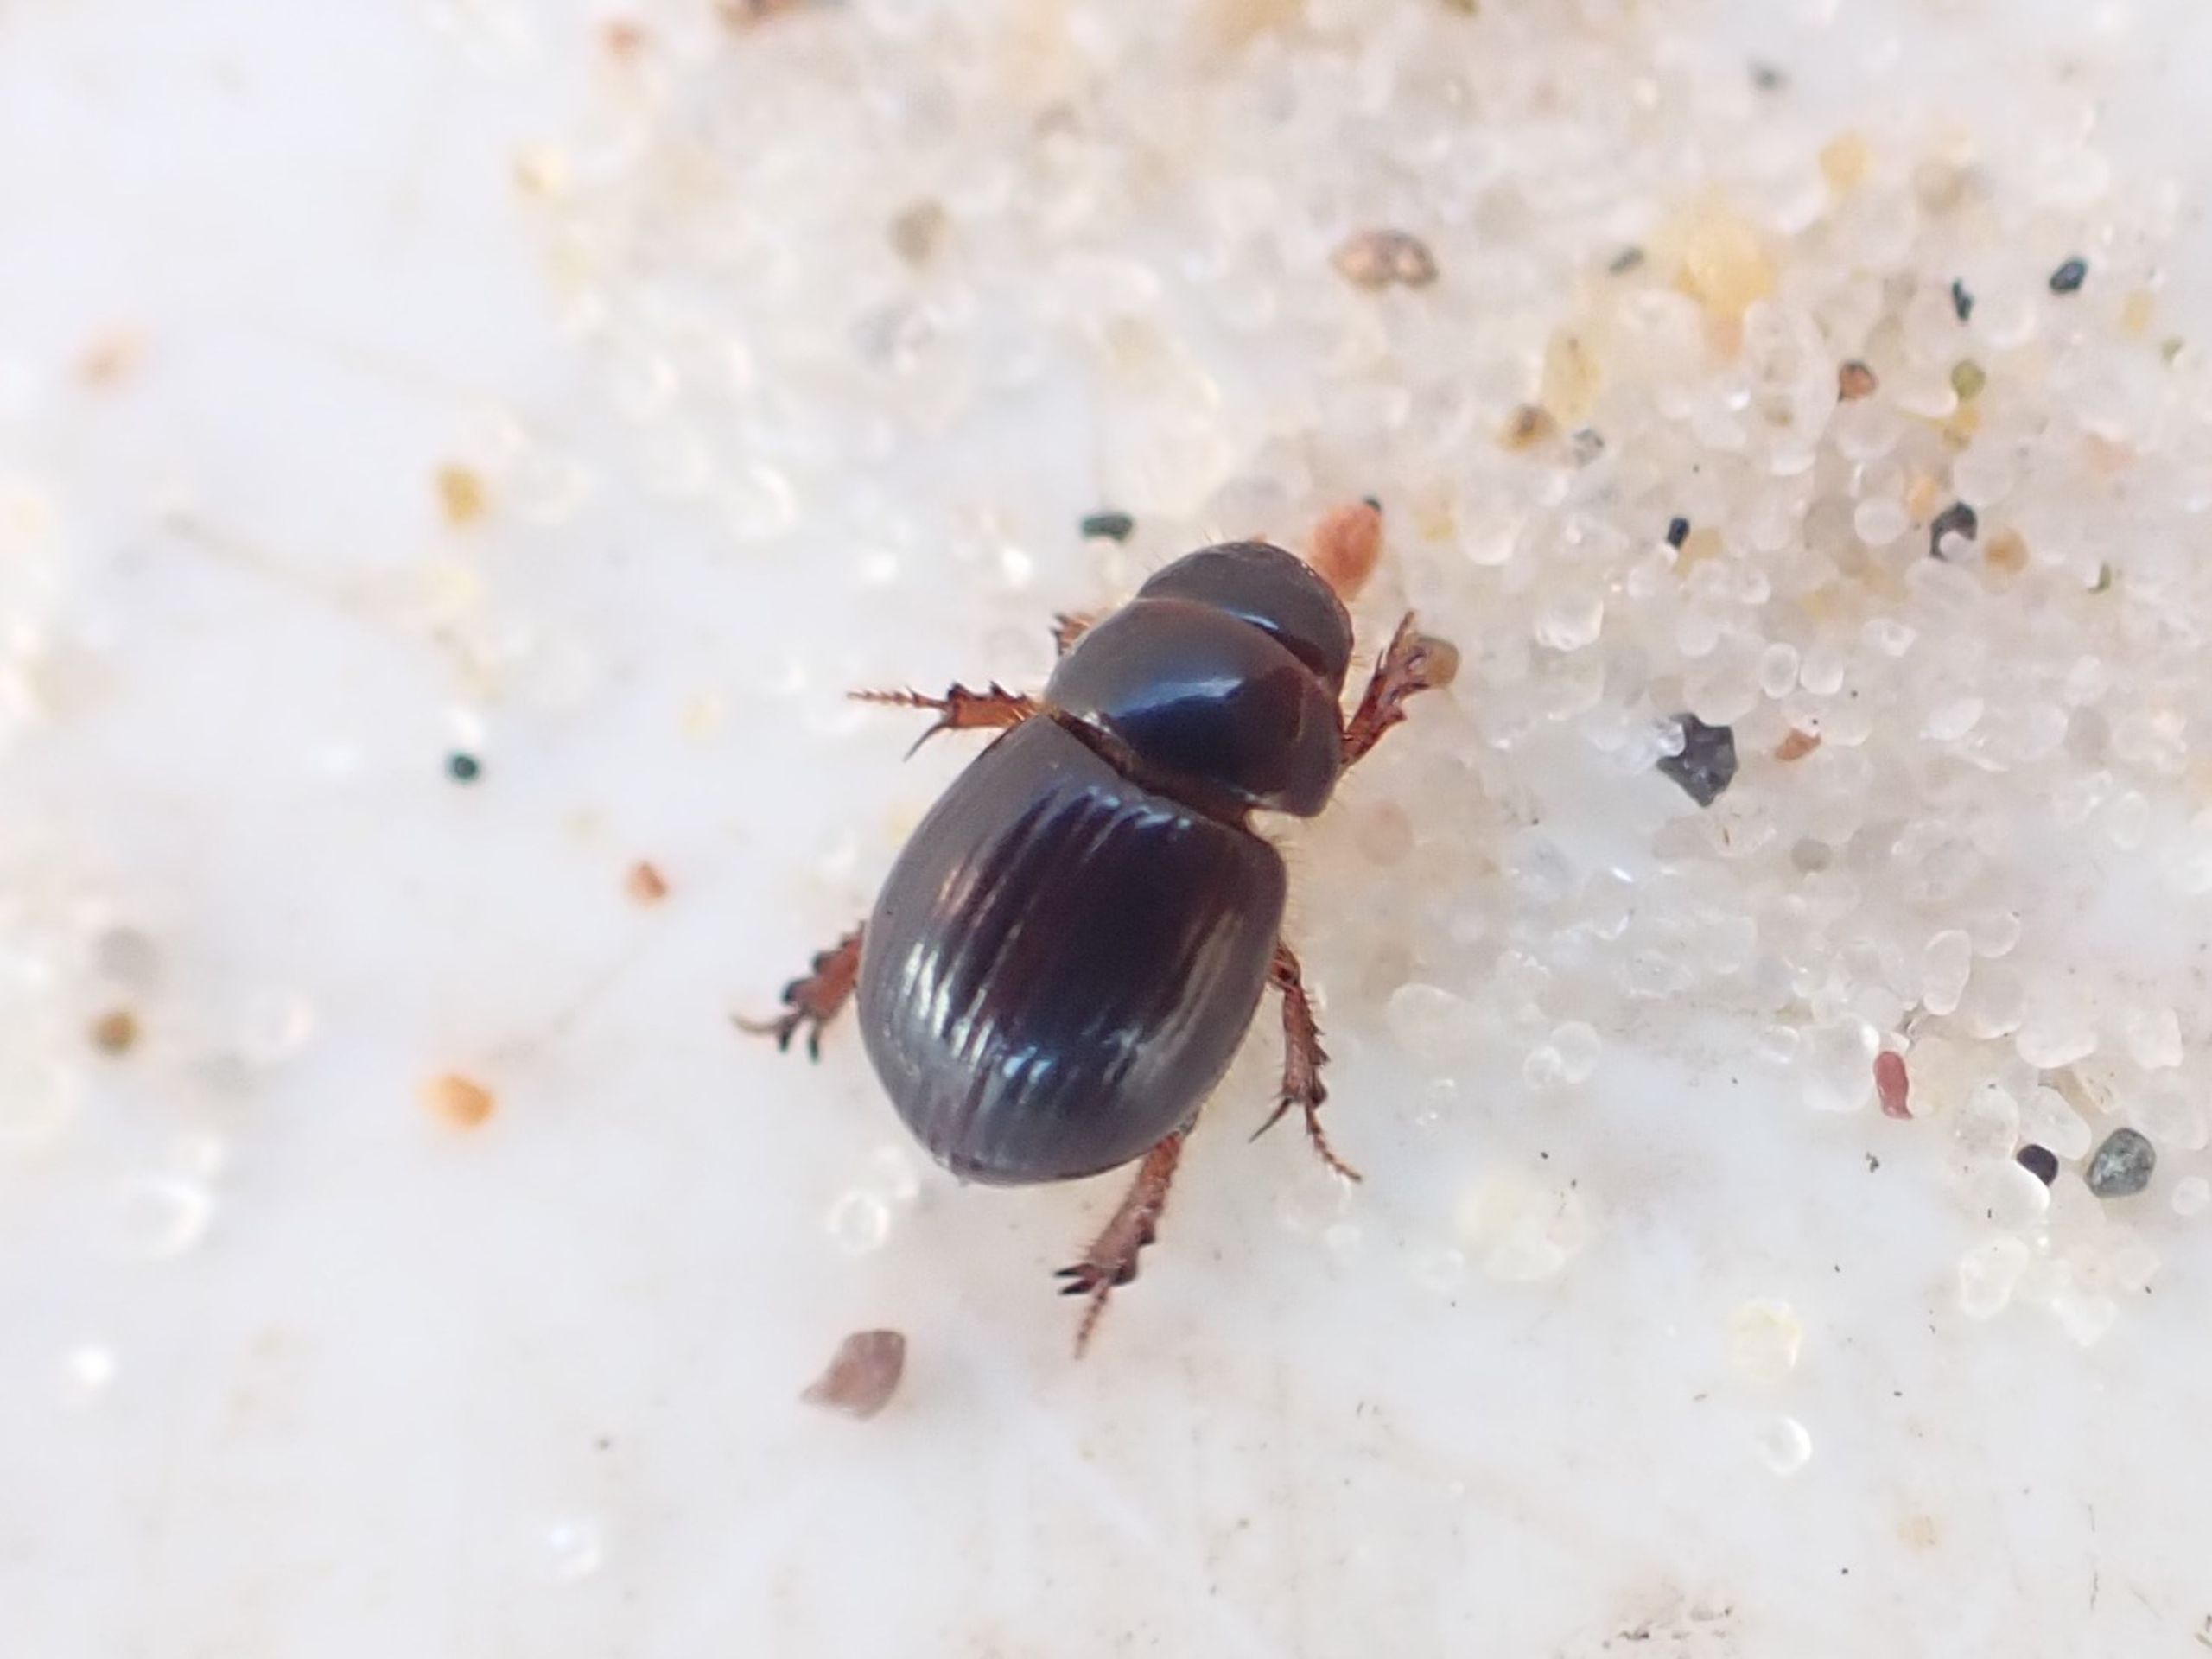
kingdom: Animalia
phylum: Arthropoda
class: Insecta
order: Coleoptera
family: Scarabaeidae
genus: Aegialia
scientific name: Aegialia arenaria
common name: Bred klittorbist
